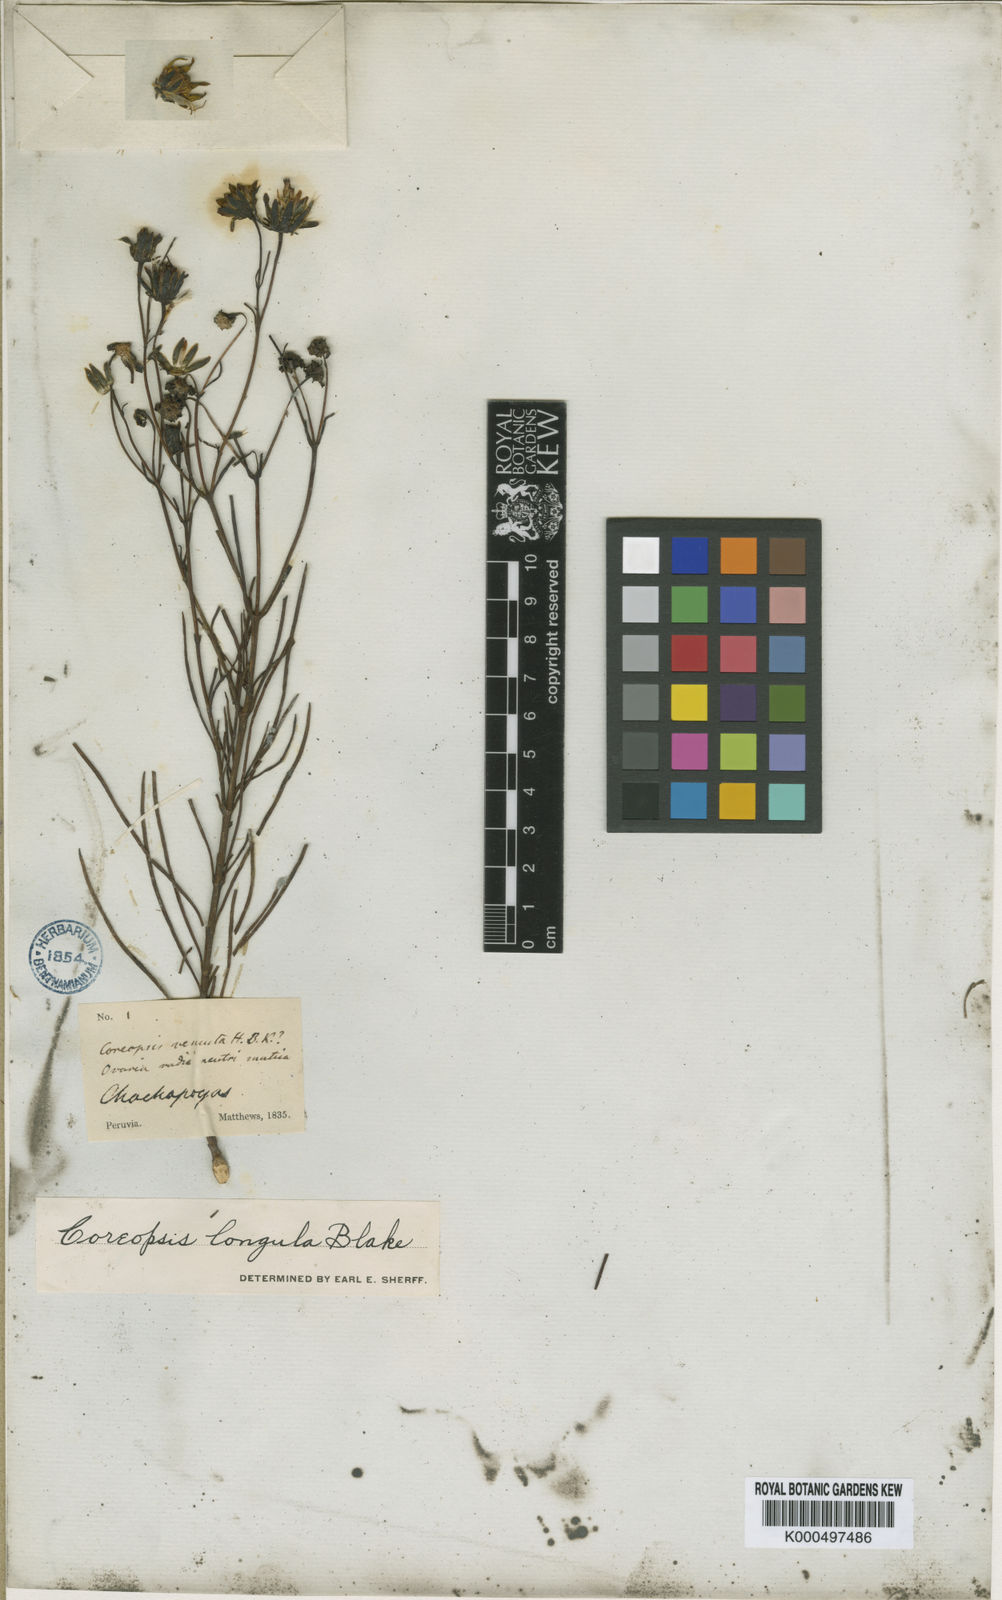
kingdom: Plantae
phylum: Tracheophyta
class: Magnoliopsida
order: Asterales
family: Asteraceae
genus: Coreopsis
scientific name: Coreopsis longula
